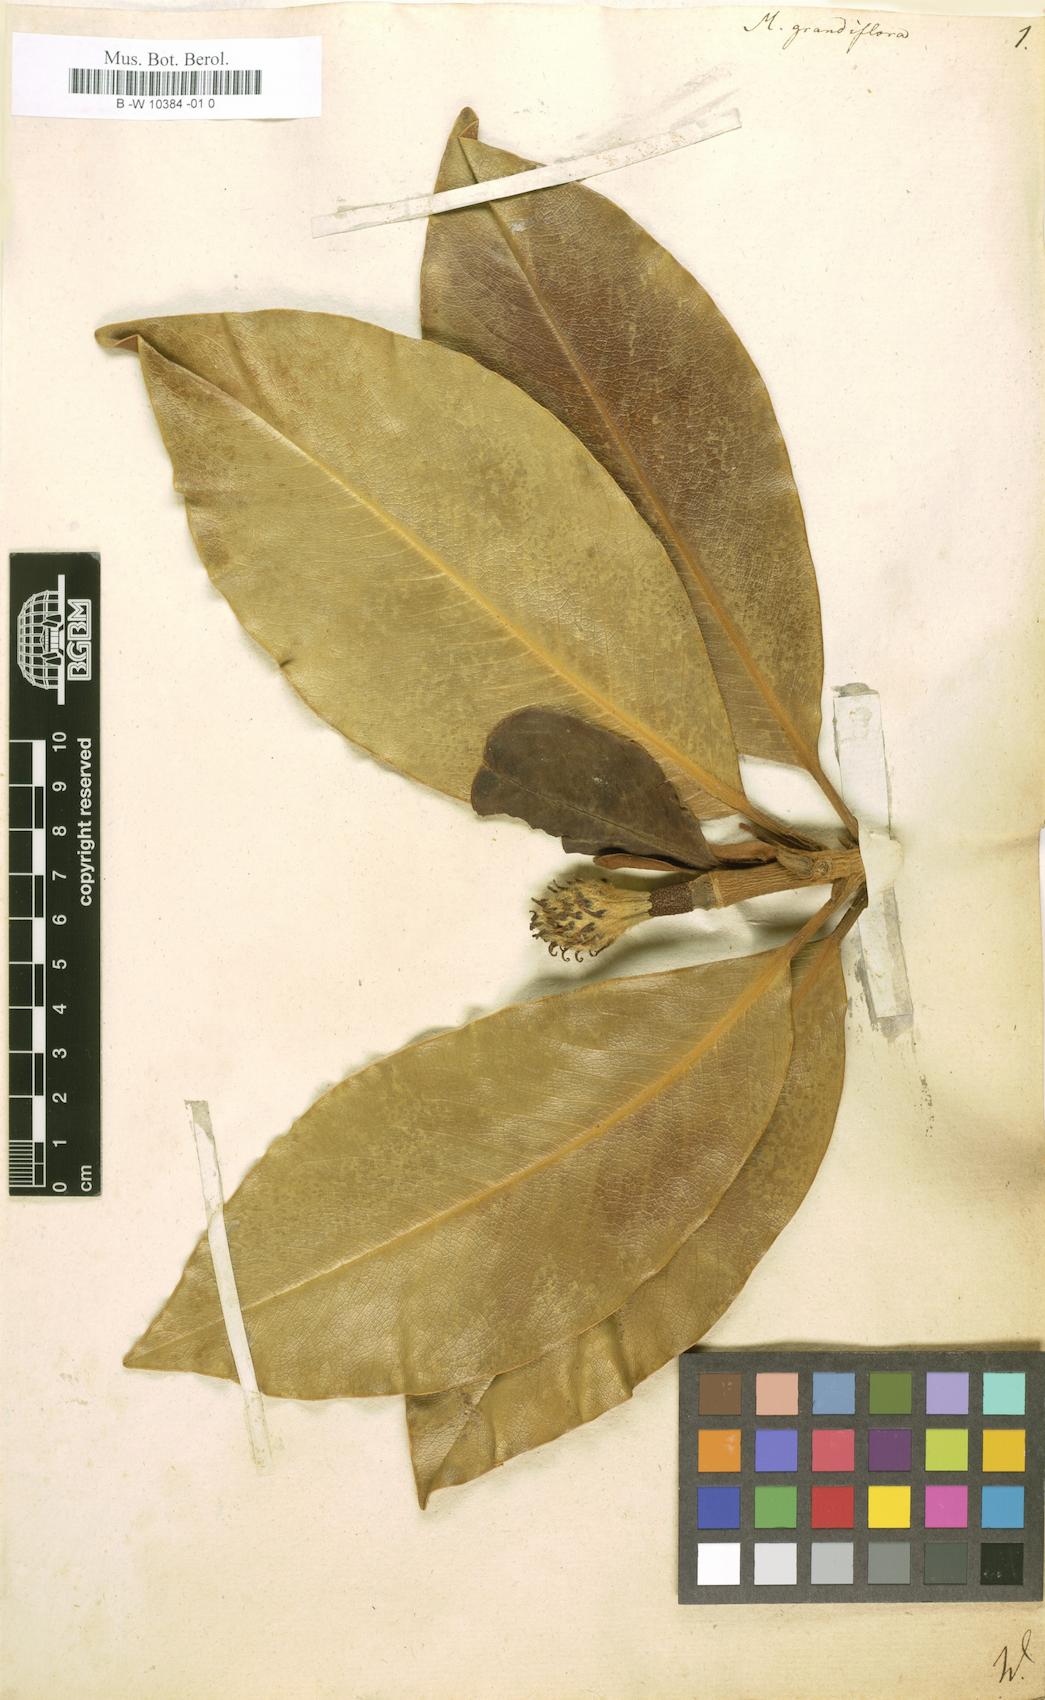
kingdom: Plantae
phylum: Tracheophyta
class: Magnoliopsida
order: Magnoliales
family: Magnoliaceae
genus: Magnolia
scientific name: Magnolia grandiflora
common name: Southern magnolia
